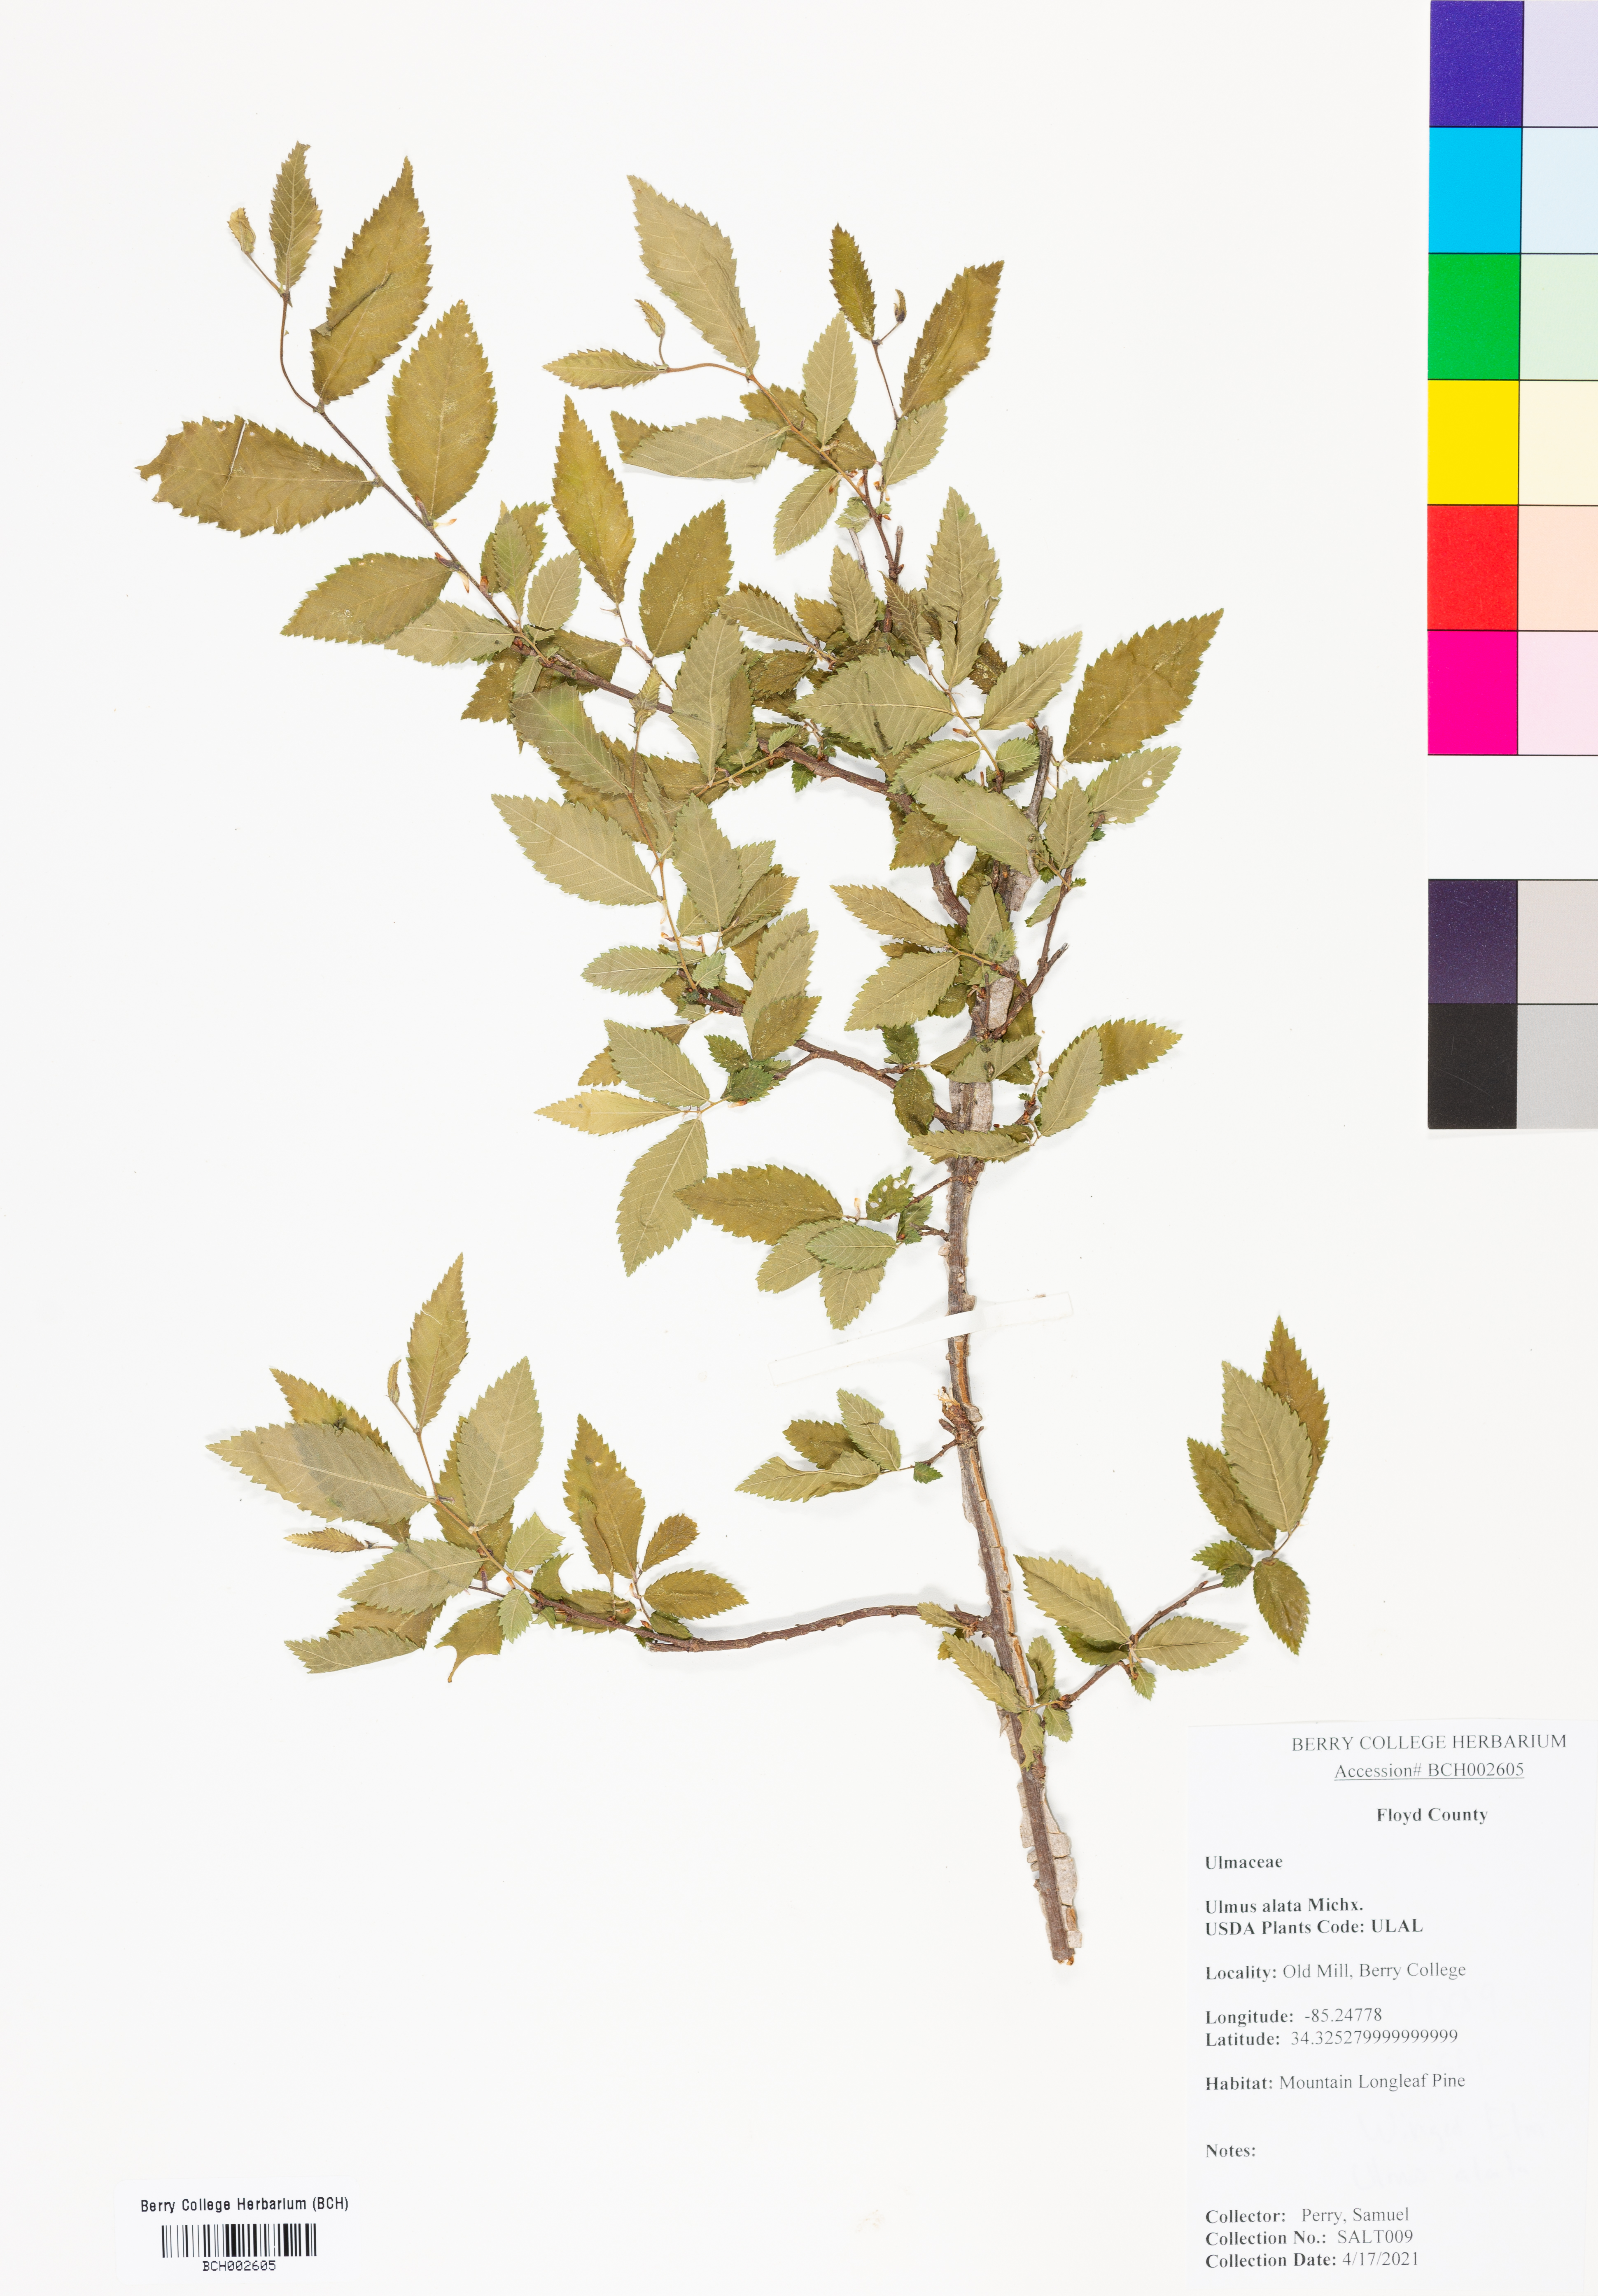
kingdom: Plantae
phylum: Tracheophyta
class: Magnoliopsida
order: Rosales
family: Ulmaceae
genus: Ulmus
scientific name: Ulmus alata
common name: Winged elm
